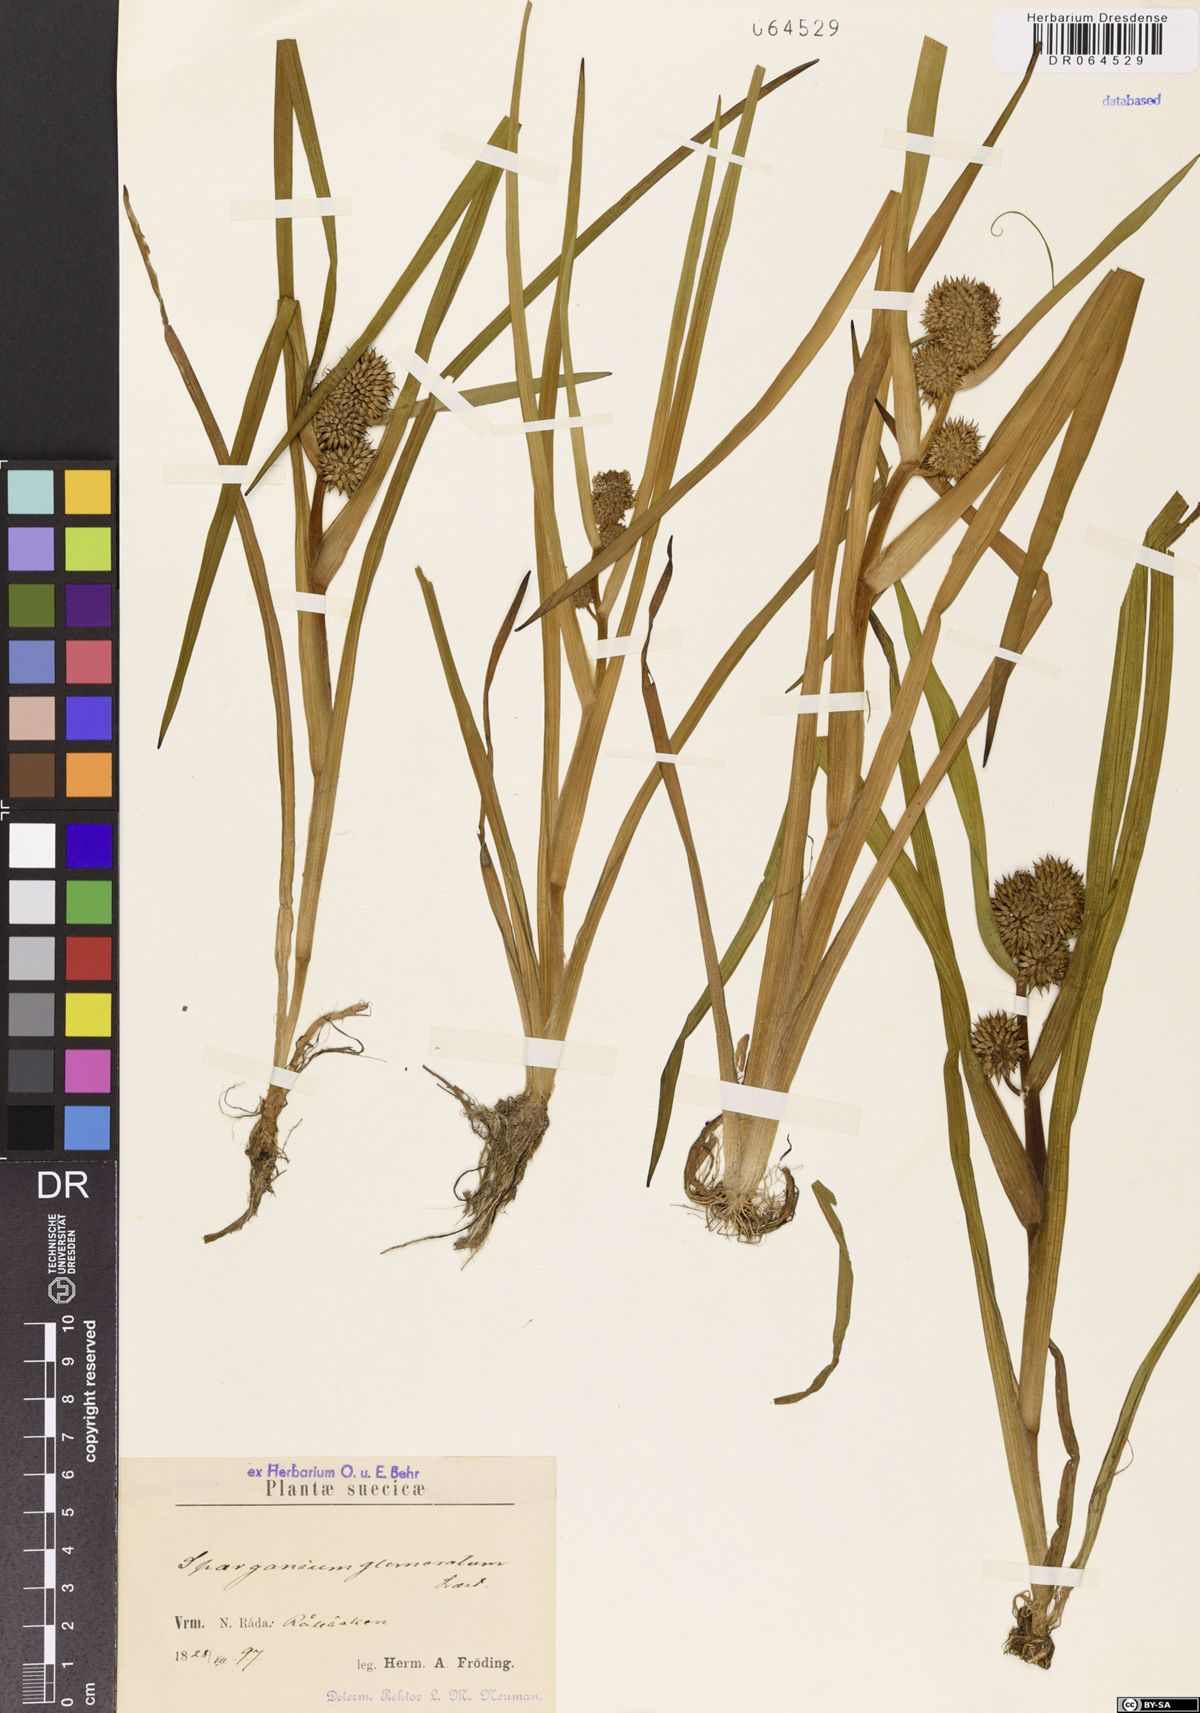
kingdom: Plantae
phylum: Tracheophyta
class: Liliopsida
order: Poales
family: Typhaceae
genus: Sparganium
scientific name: Sparganium glomeratum
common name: Clustered burreed
